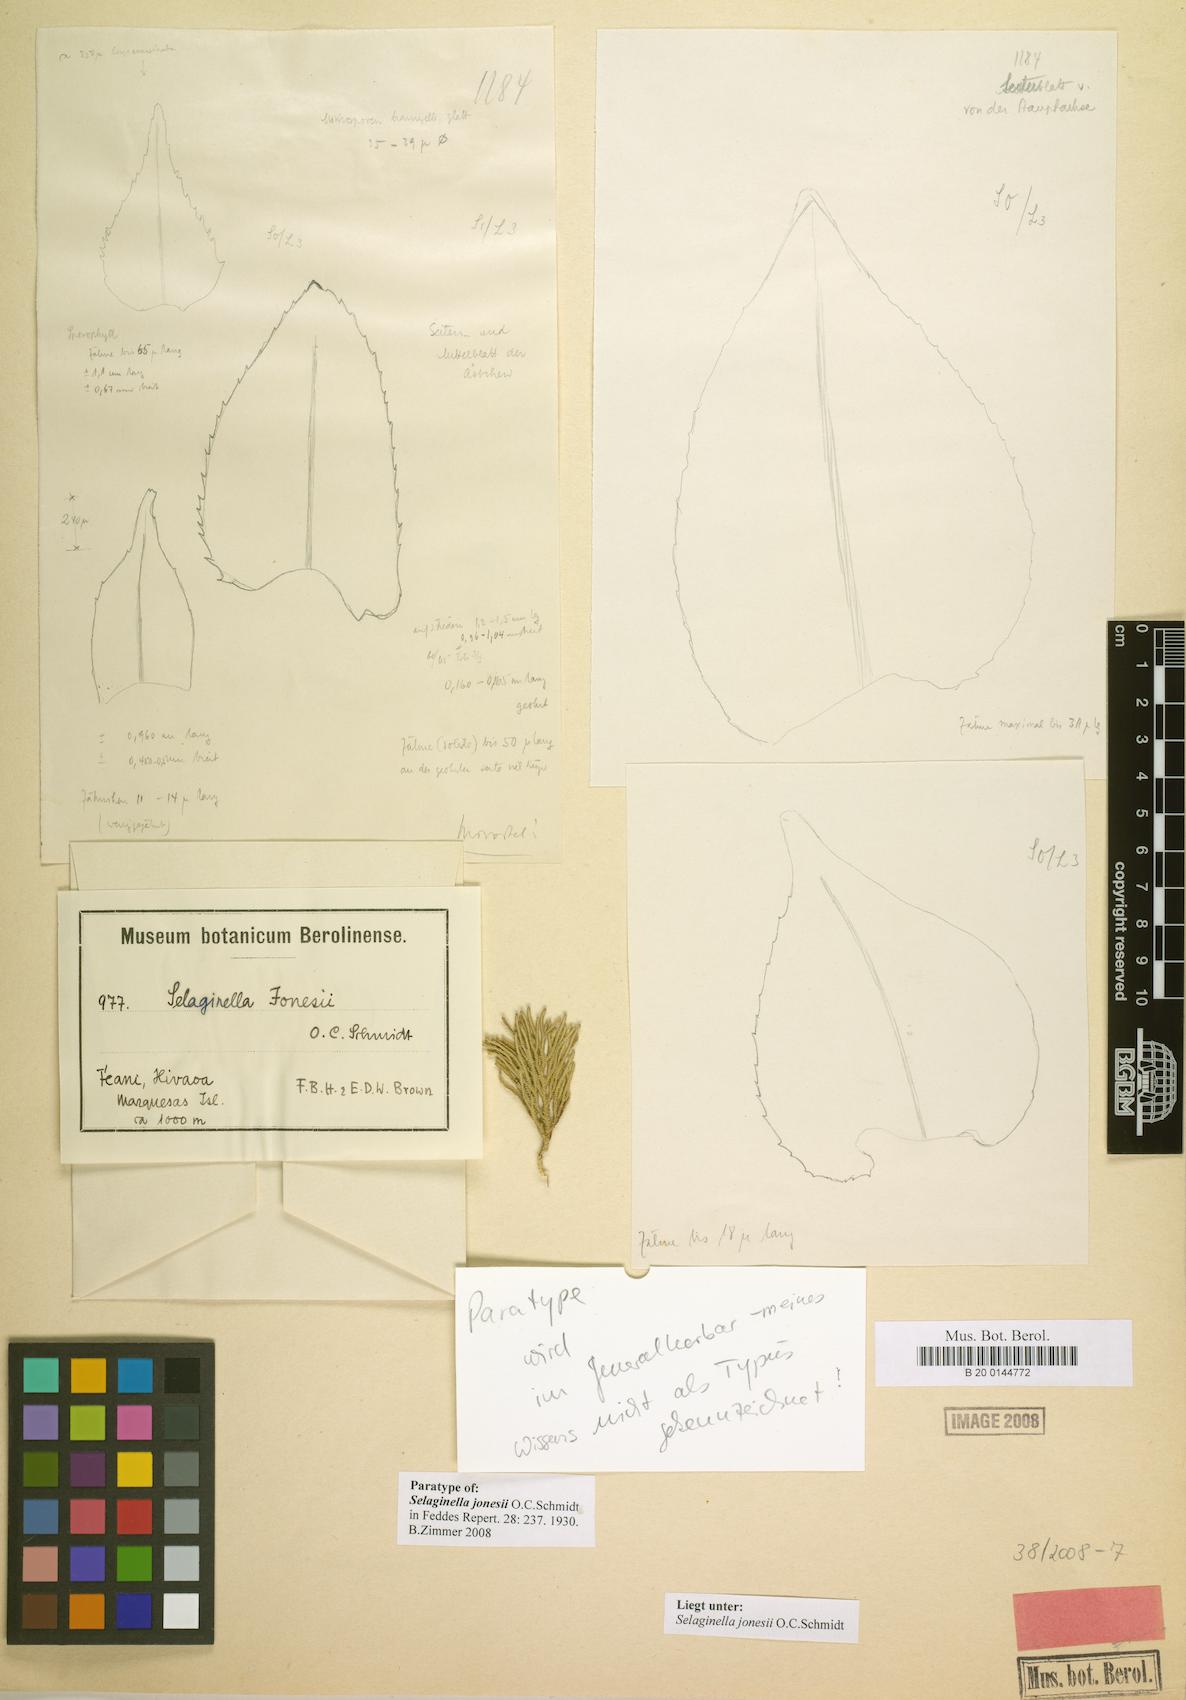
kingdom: Plantae
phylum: Tracheophyta
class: Lycopodiopsida
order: Selaginellales
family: Selaginellaceae
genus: Selaginella
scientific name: Selaginella arbuscula
